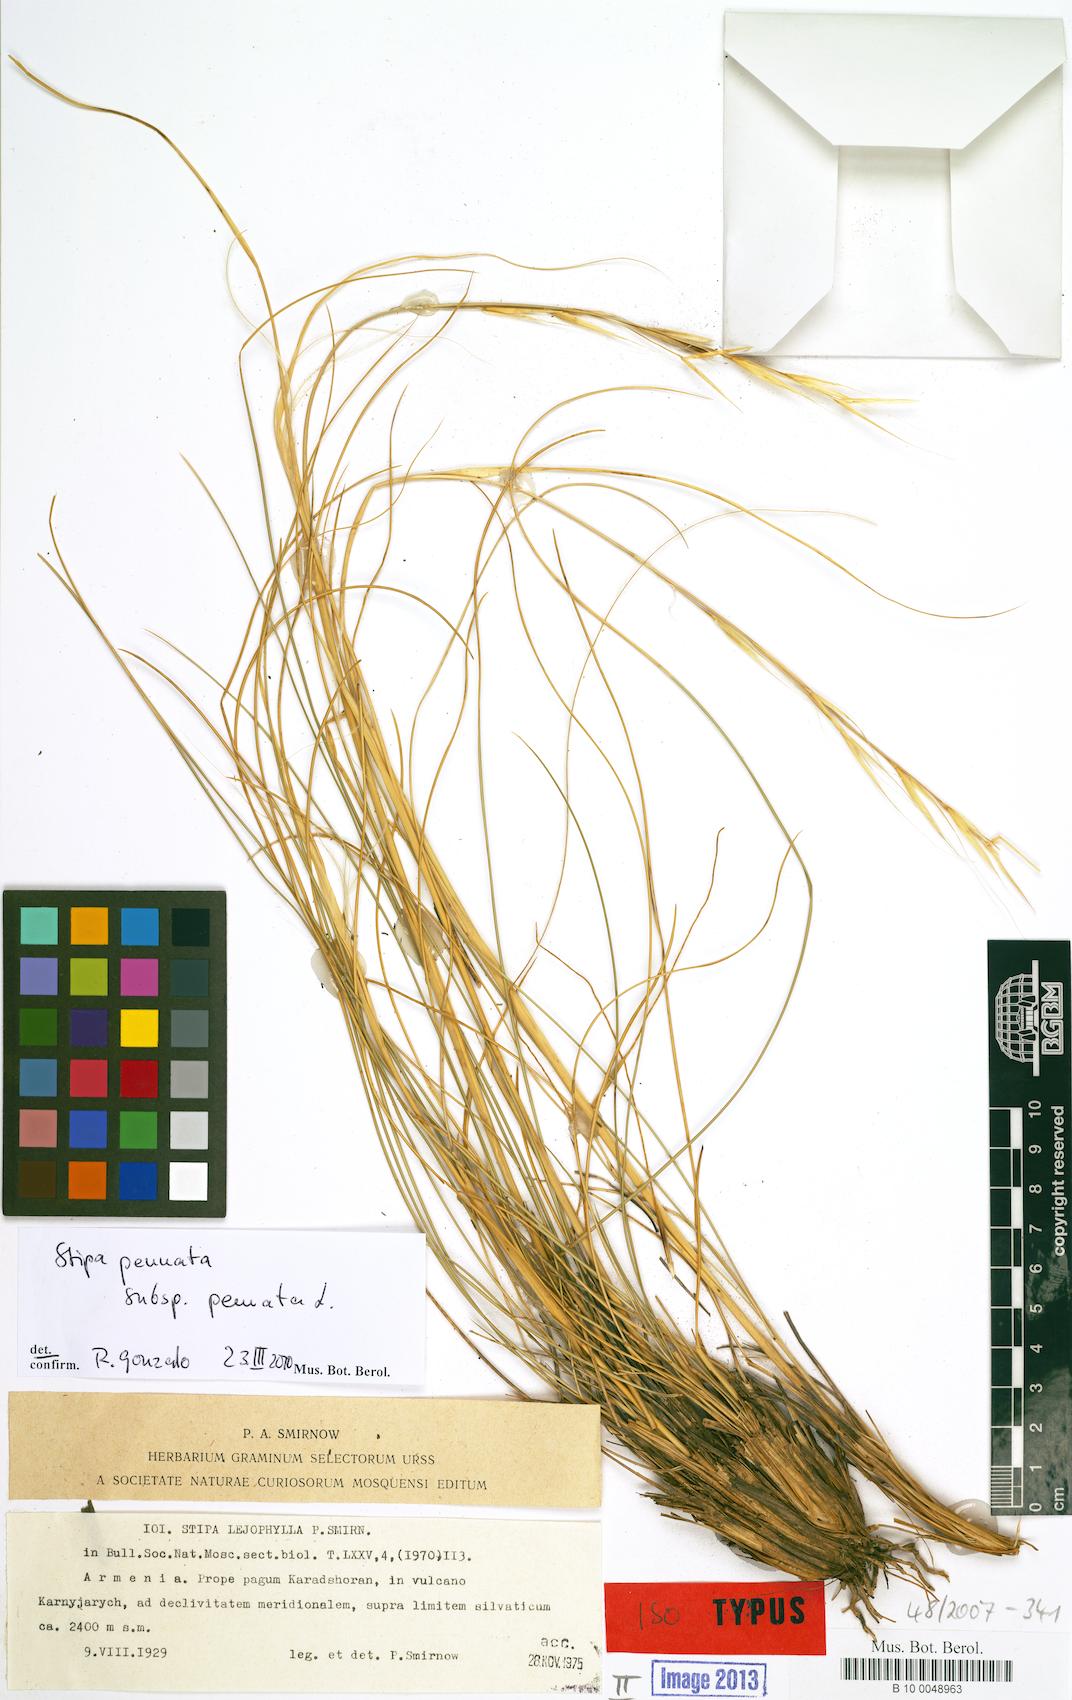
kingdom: Plantae
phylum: Tracheophyta
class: Liliopsida
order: Poales
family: Poaceae
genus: Stipa
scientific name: Stipa pennata
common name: European feather grass
